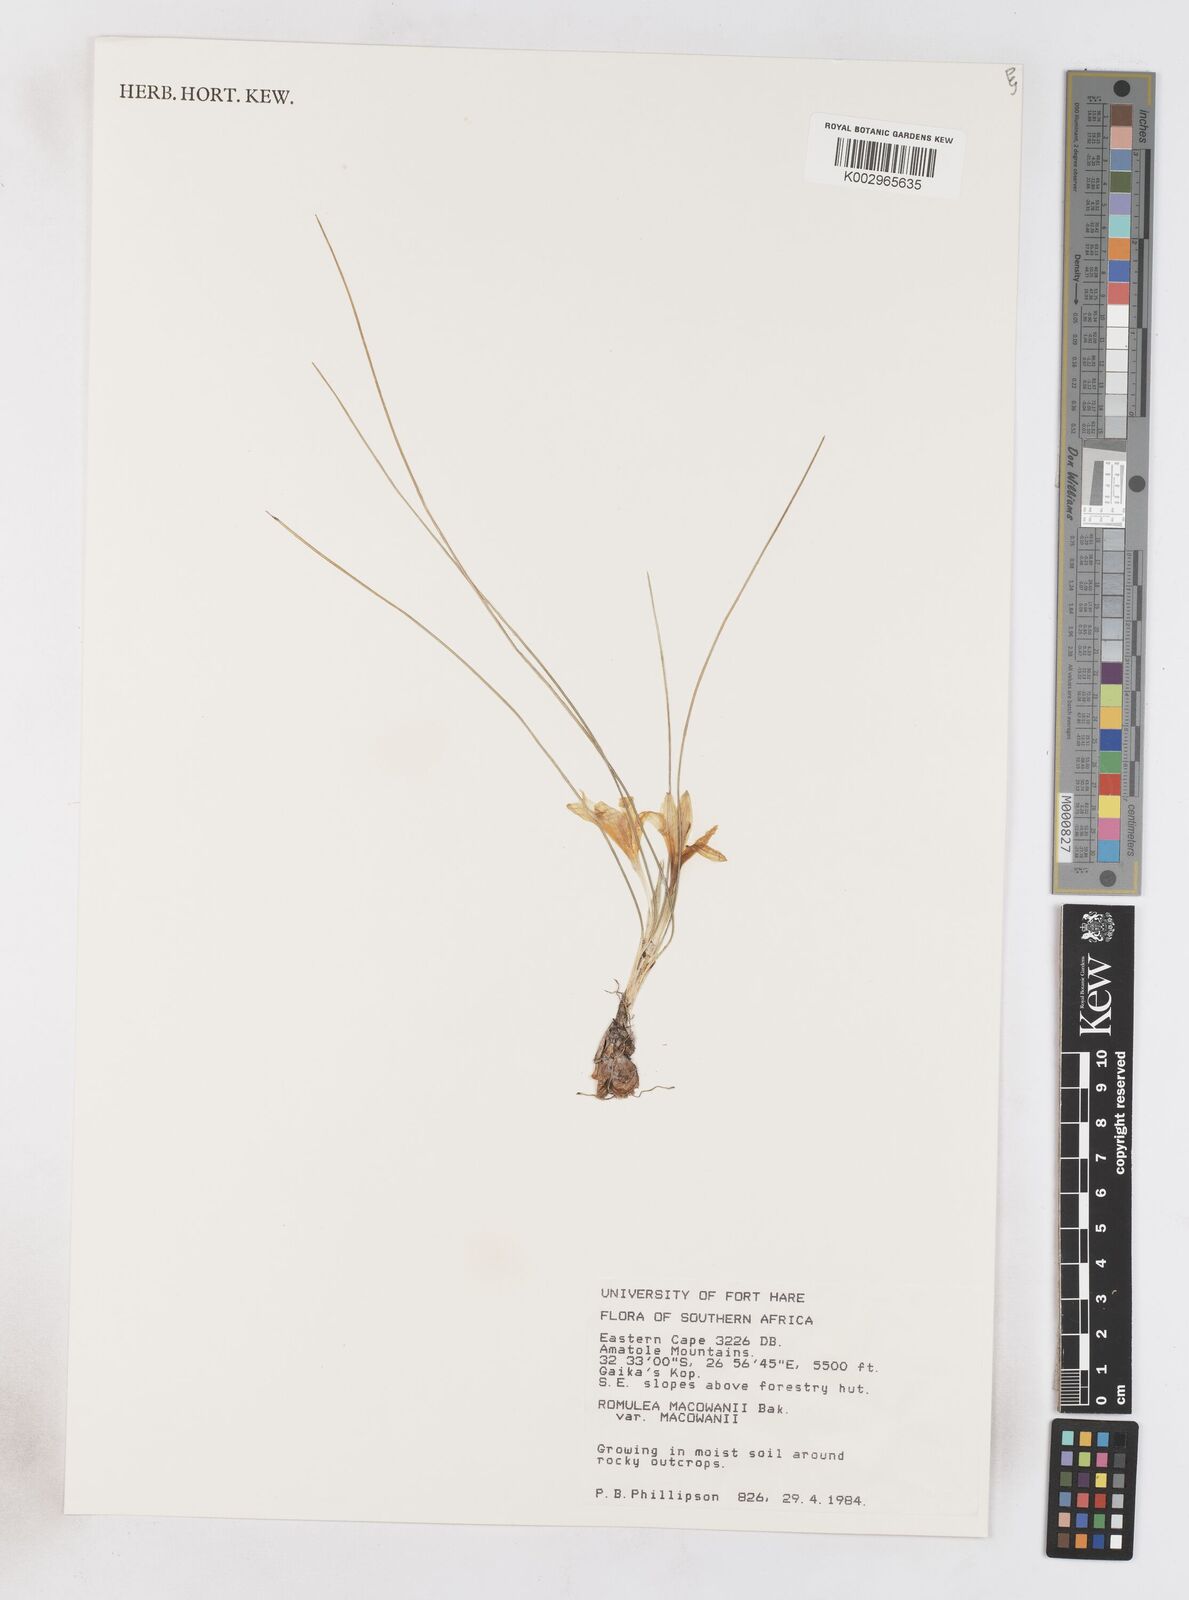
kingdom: Plantae
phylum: Tracheophyta
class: Liliopsida
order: Asparagales
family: Iridaceae
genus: Romulea
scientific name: Romulea macowanii
